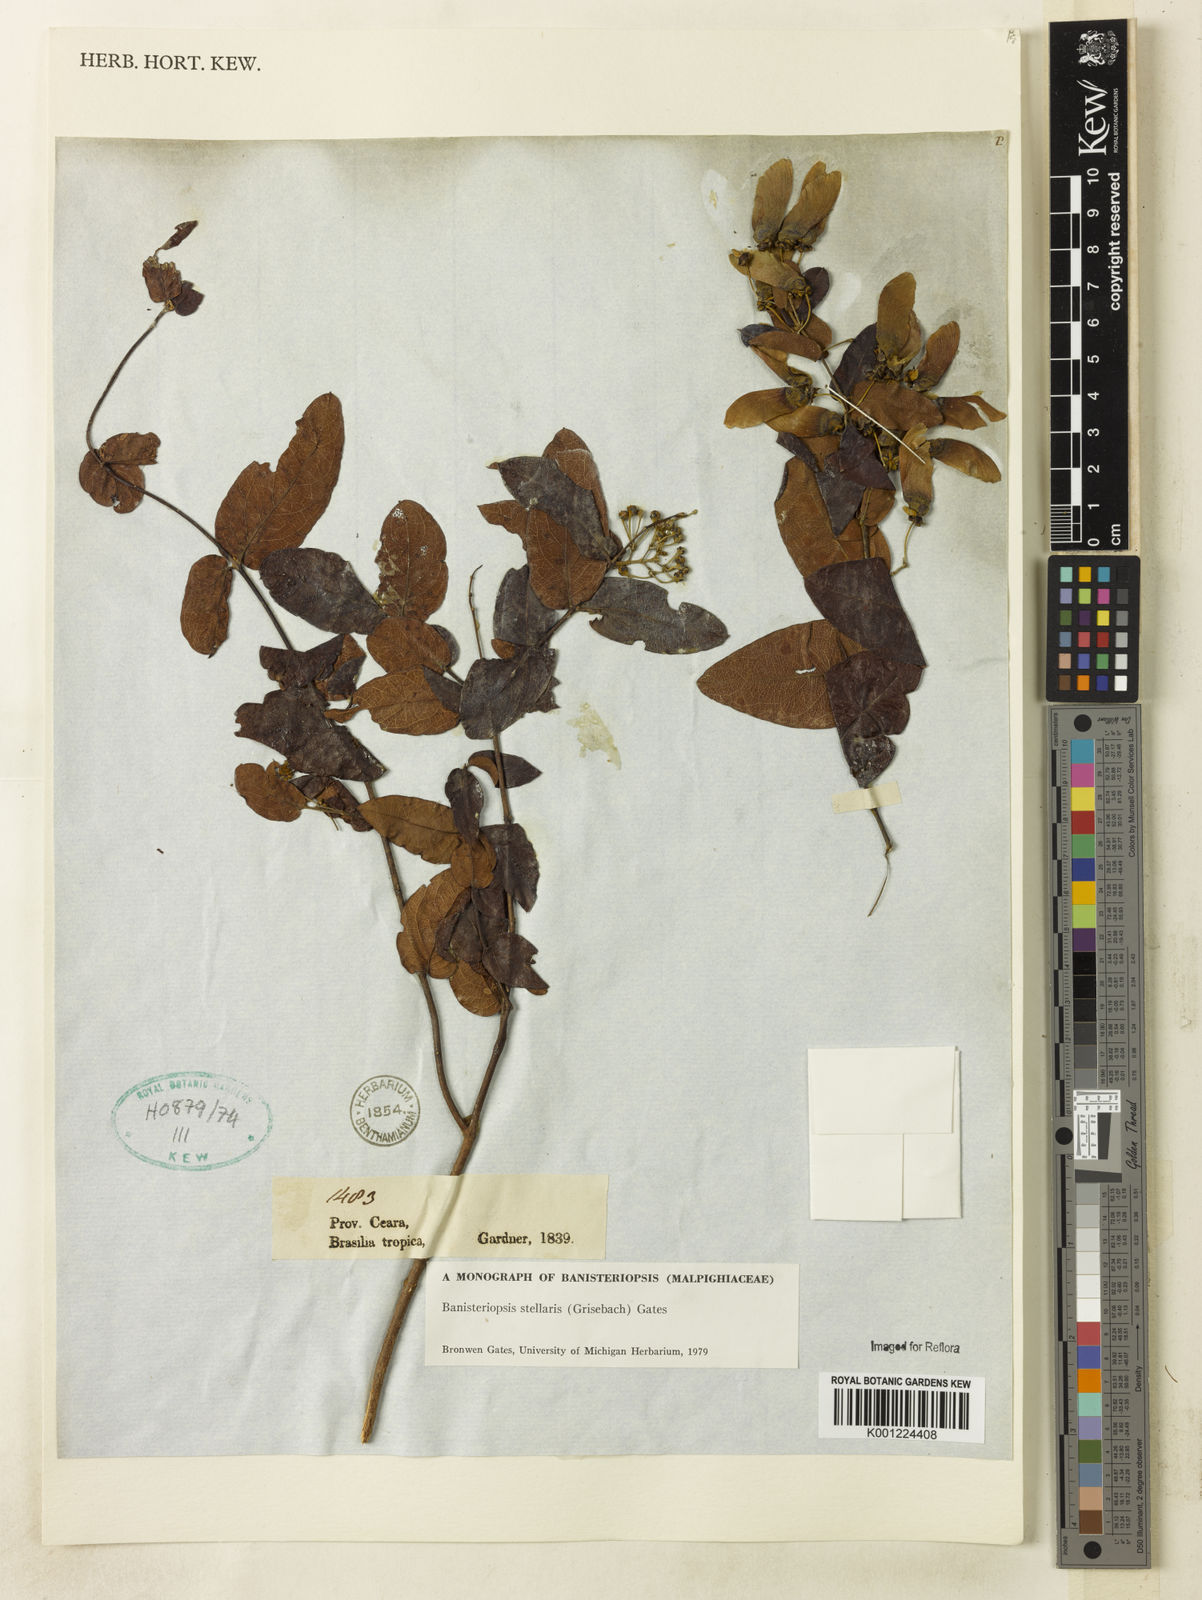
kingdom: Plantae
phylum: Tracheophyta
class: Magnoliopsida
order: Malpighiales
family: Malpighiaceae
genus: Banisteriopsis
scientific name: Banisteriopsis stellaris
